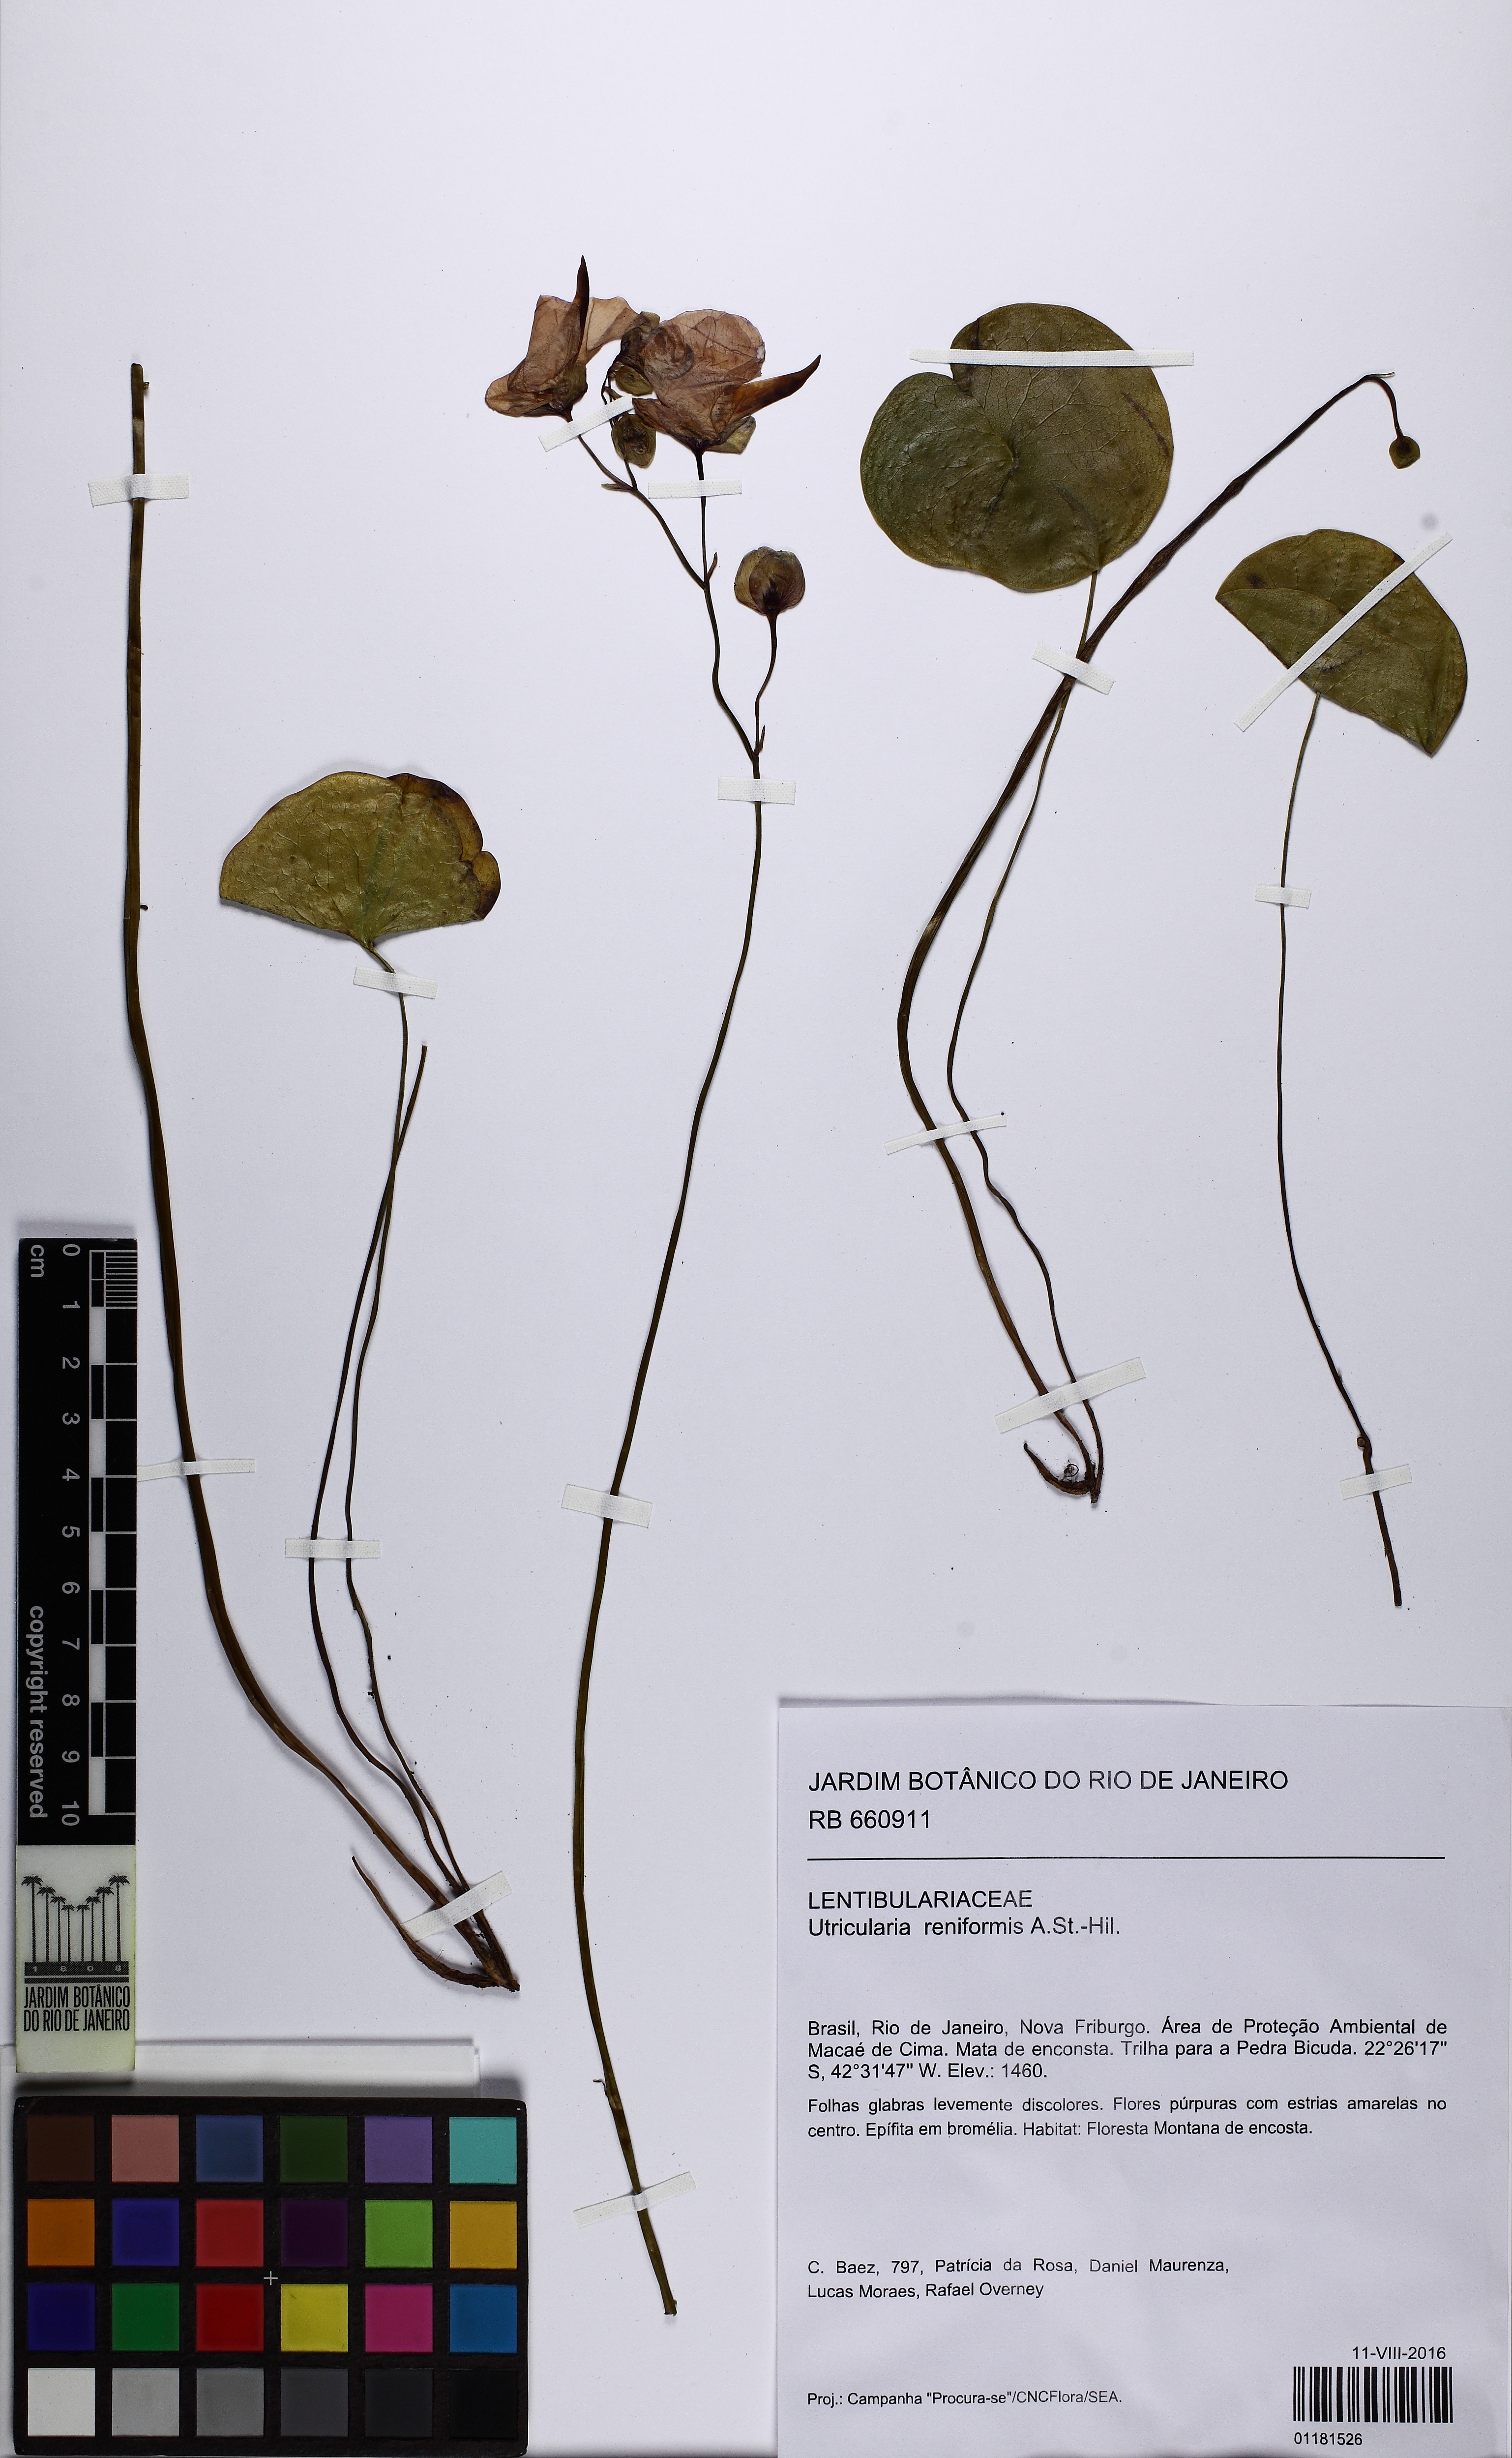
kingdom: Plantae
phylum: Tracheophyta
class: Magnoliopsida
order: Lamiales
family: Lentibulariaceae
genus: Utricularia
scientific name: Utricularia reniformis
